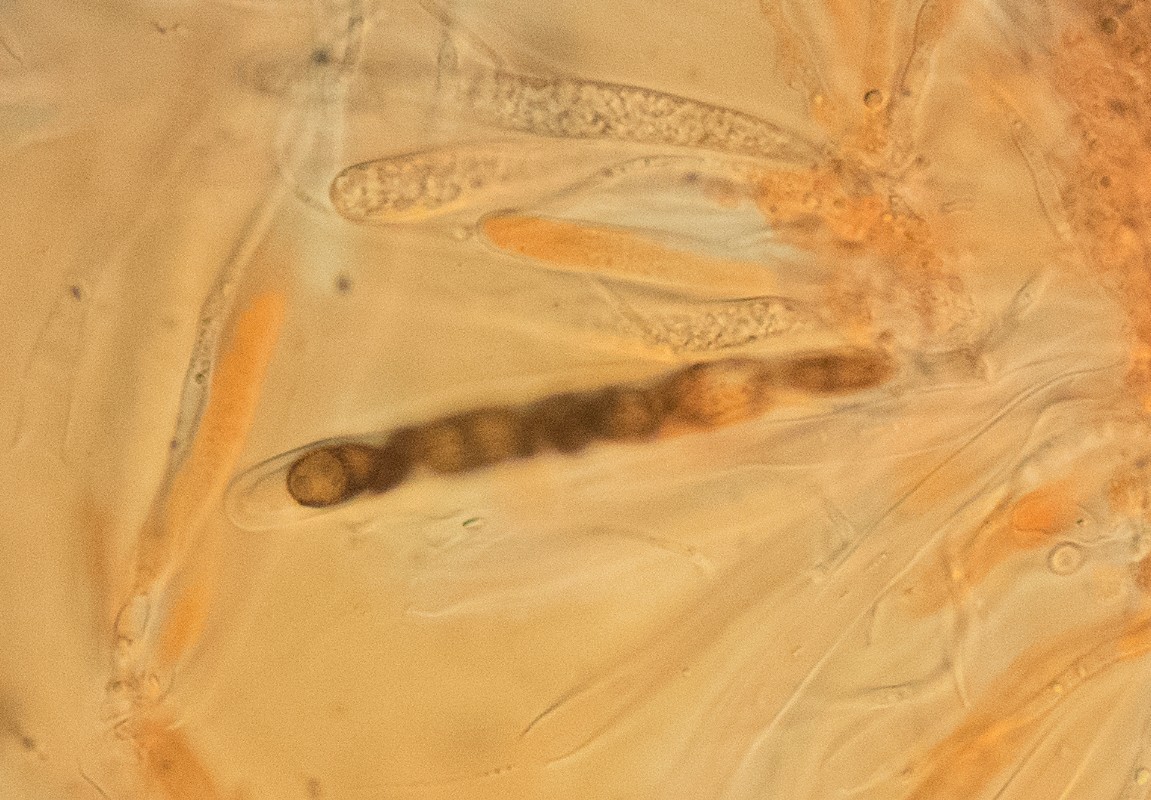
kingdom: Fungi
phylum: Ascomycota
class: Dothideomycetes
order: Pleosporales
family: Didymosphaeriaceae
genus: Didymosphaeria
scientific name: Didymosphaeria oblitescens
